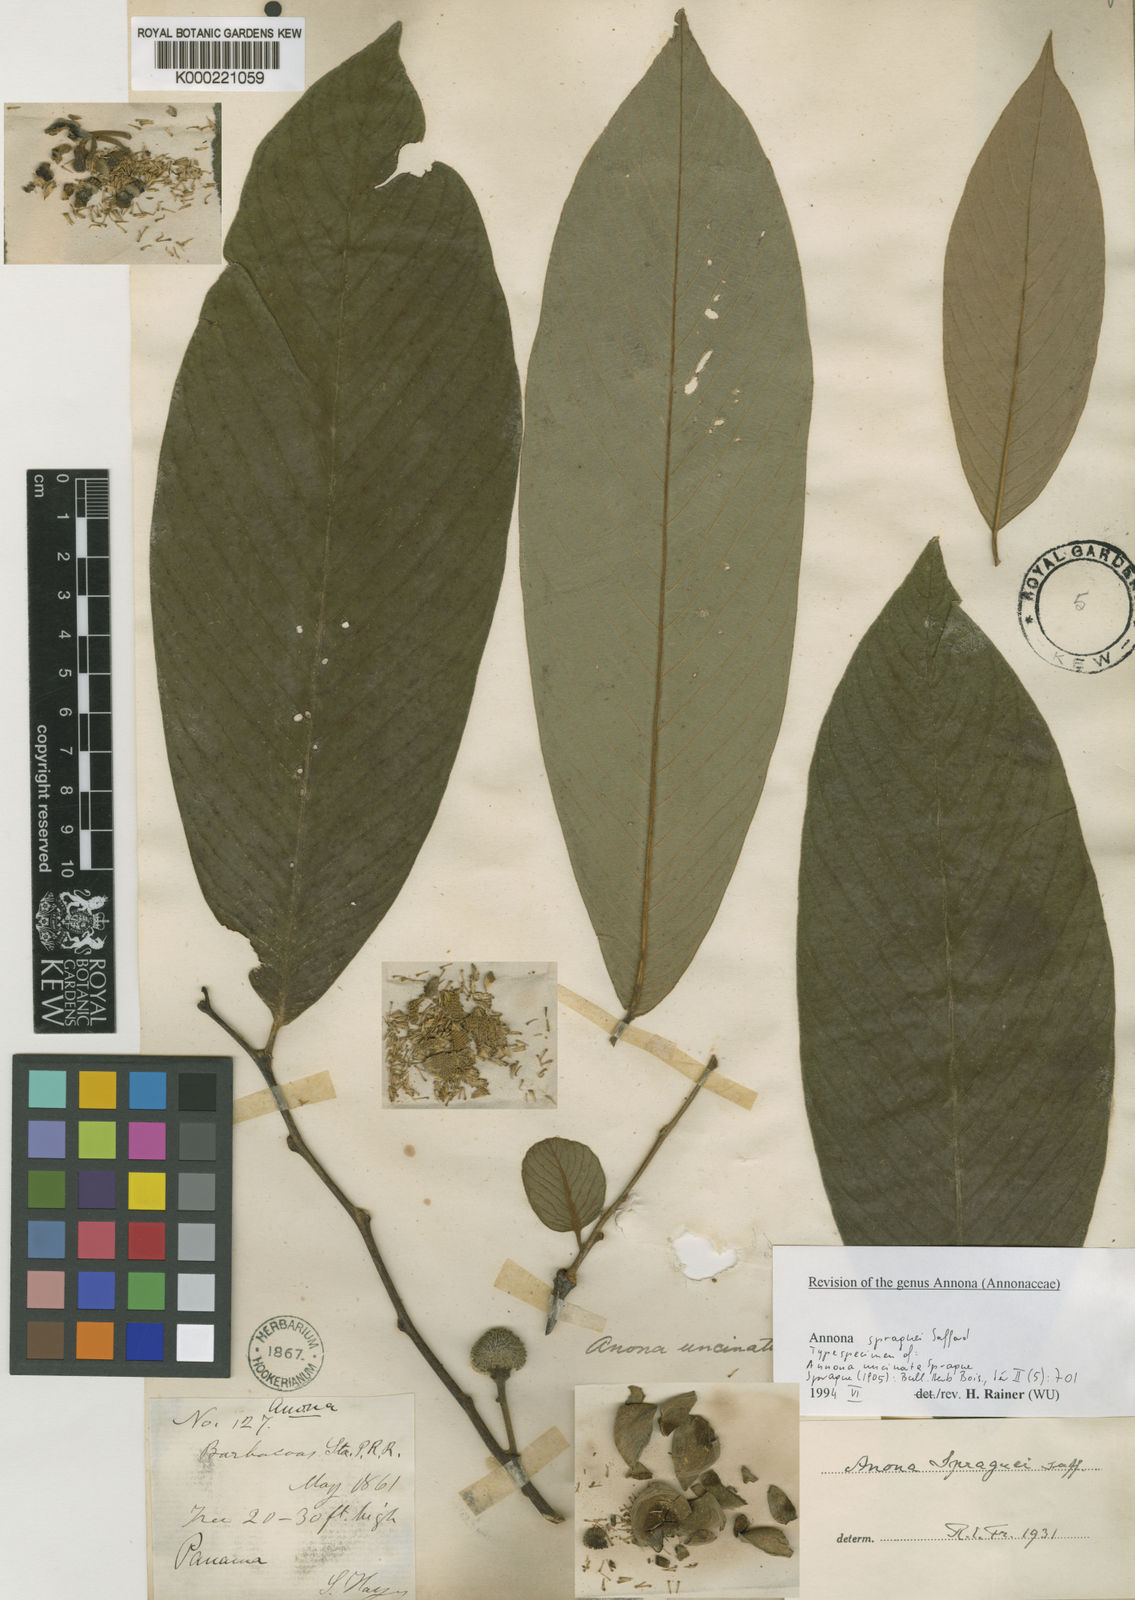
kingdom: Plantae
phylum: Tracheophyta
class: Magnoliopsida
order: Magnoliales
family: Annonaceae
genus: Annona
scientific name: Annona spraguei
